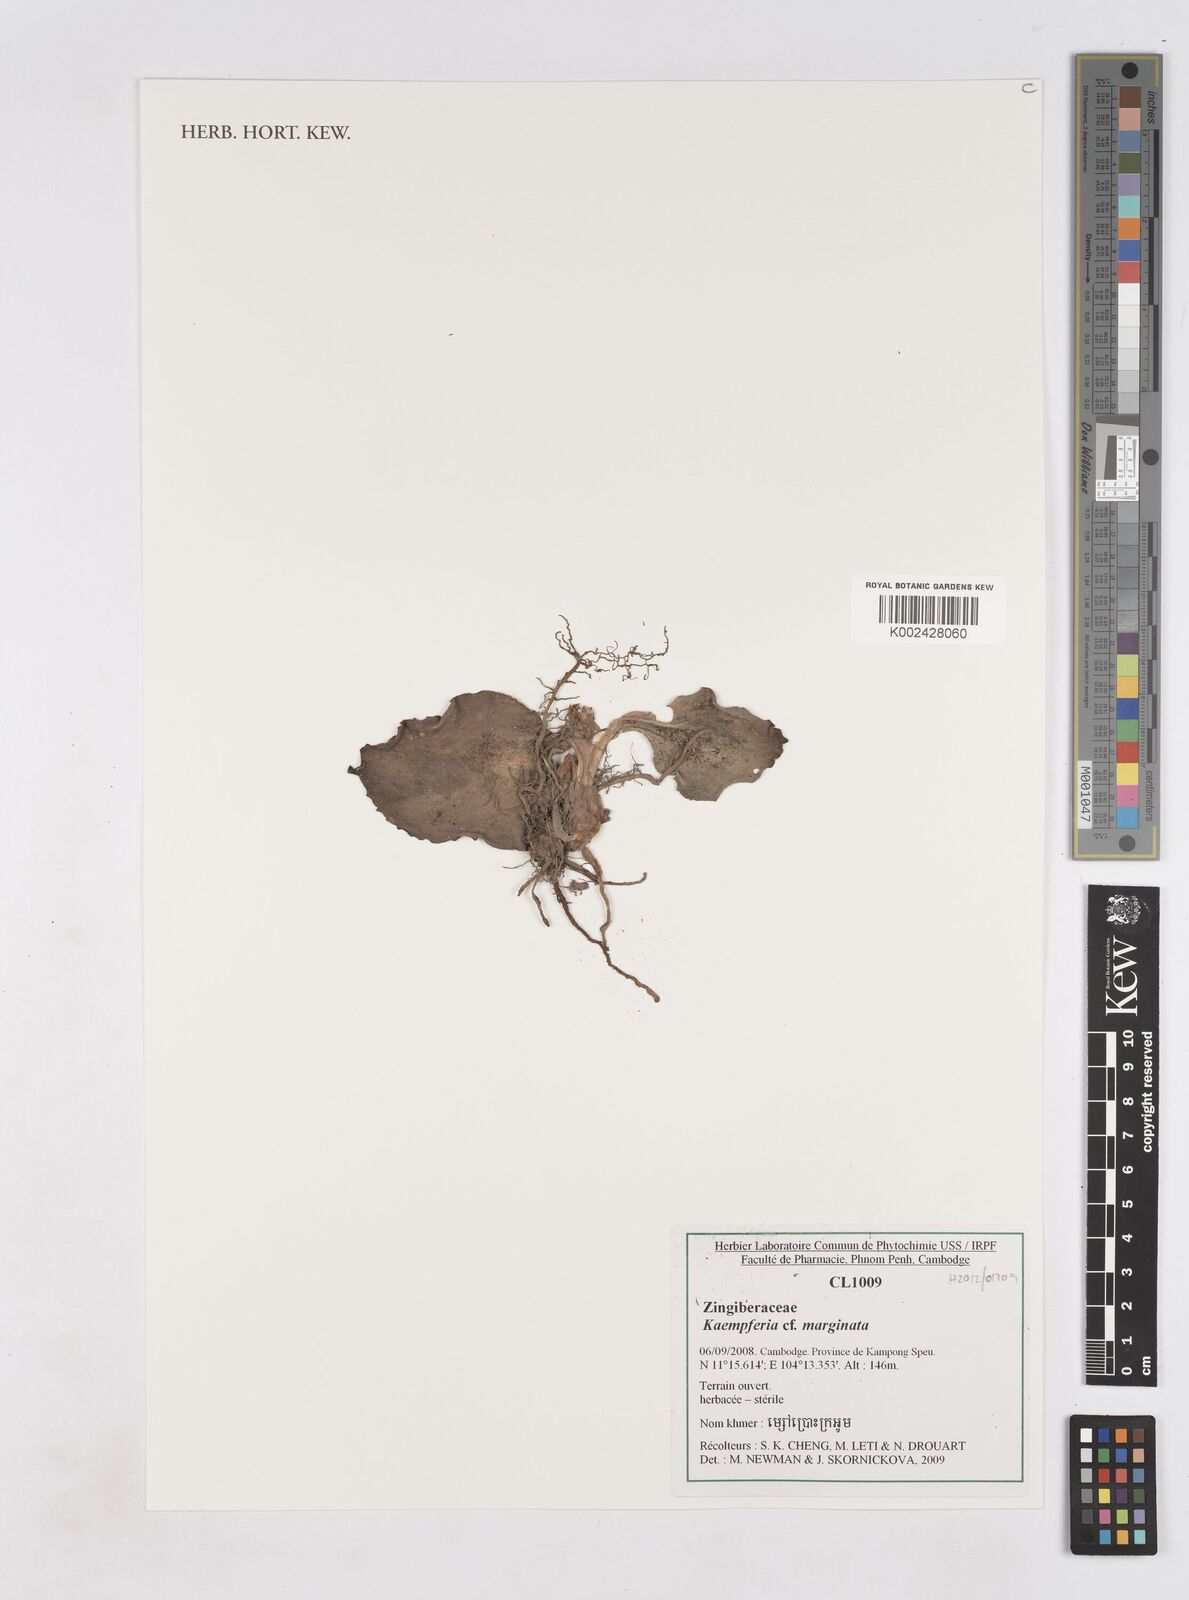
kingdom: Plantae
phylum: Tracheophyta
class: Liliopsida
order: Zingiberales
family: Zingiberaceae
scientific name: Zingiberaceae
